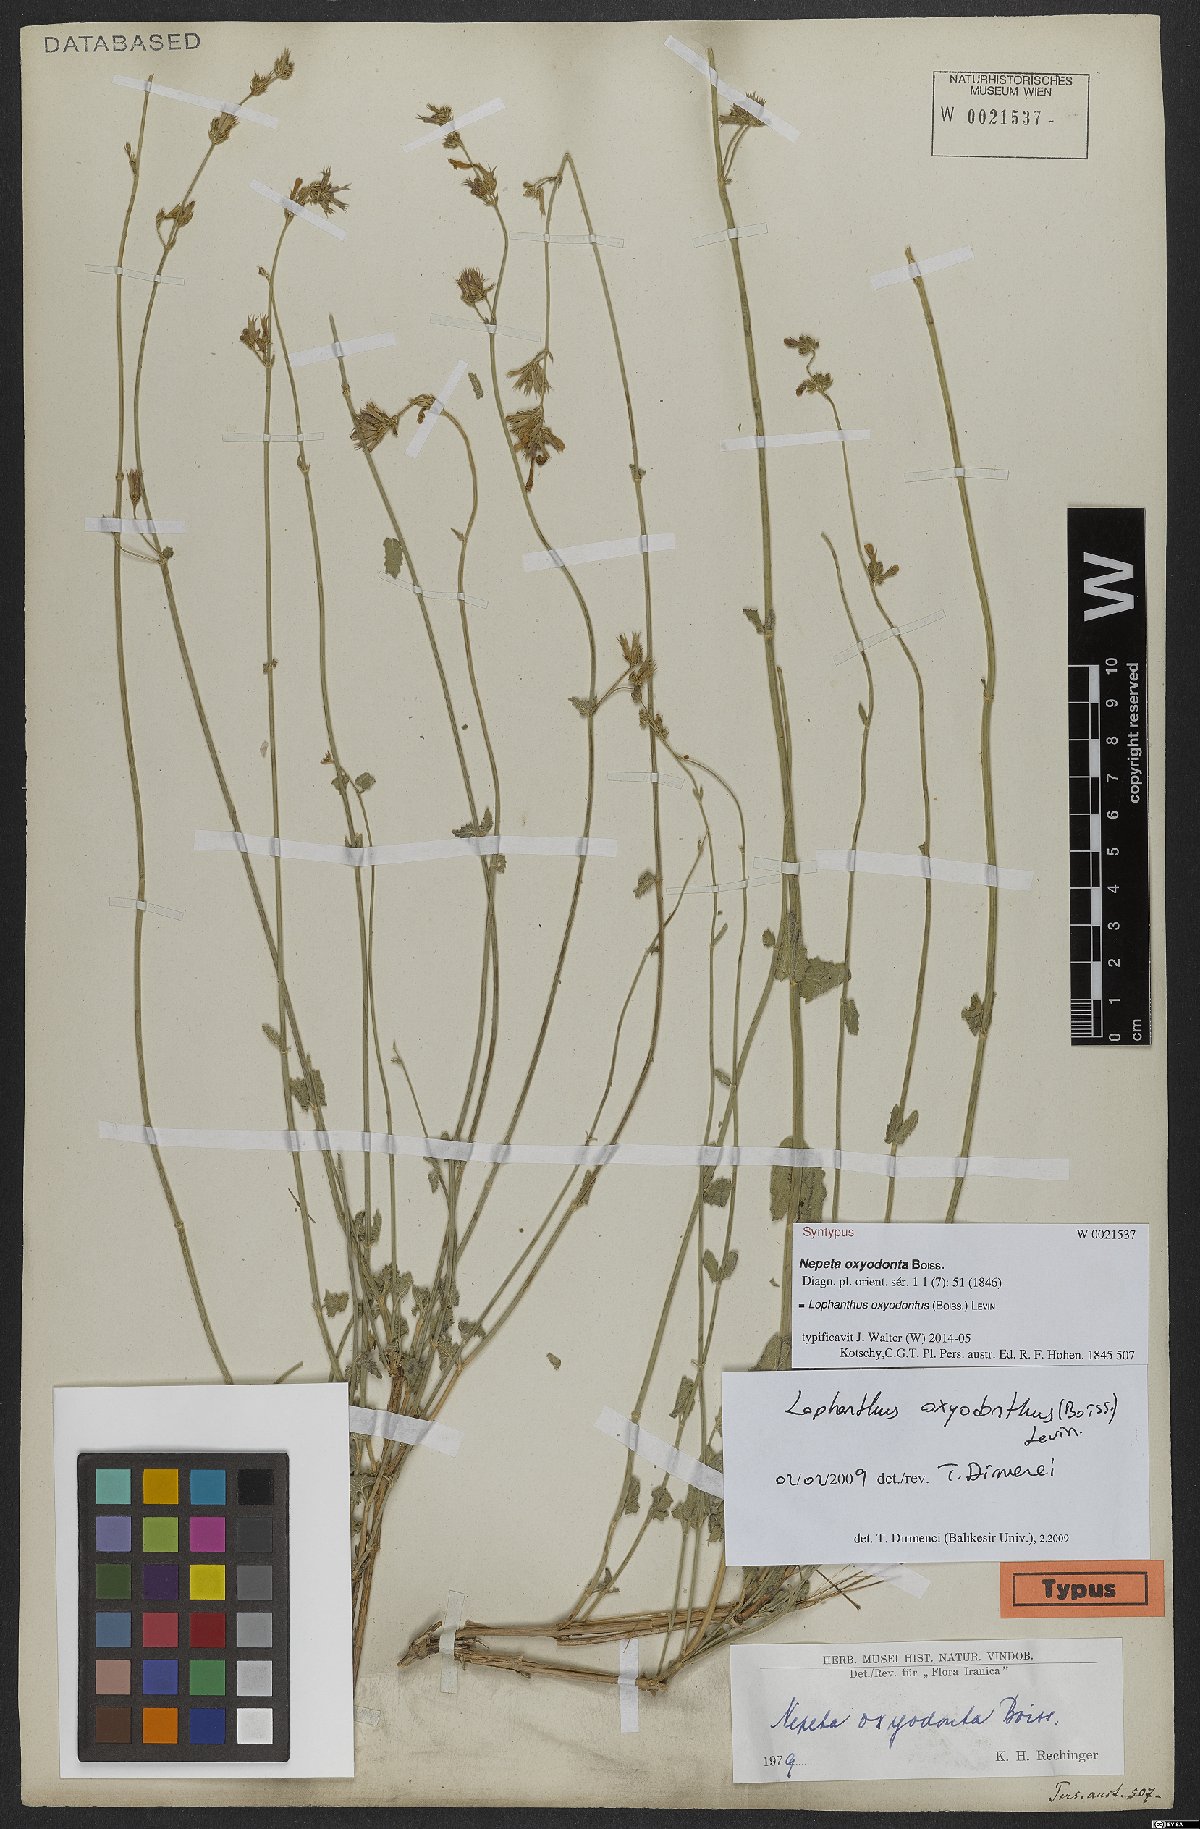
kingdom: Plantae
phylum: Tracheophyta
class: Magnoliopsida
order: Lamiales
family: Lamiaceae
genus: Nepeta
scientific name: Nepeta oxyodonta
